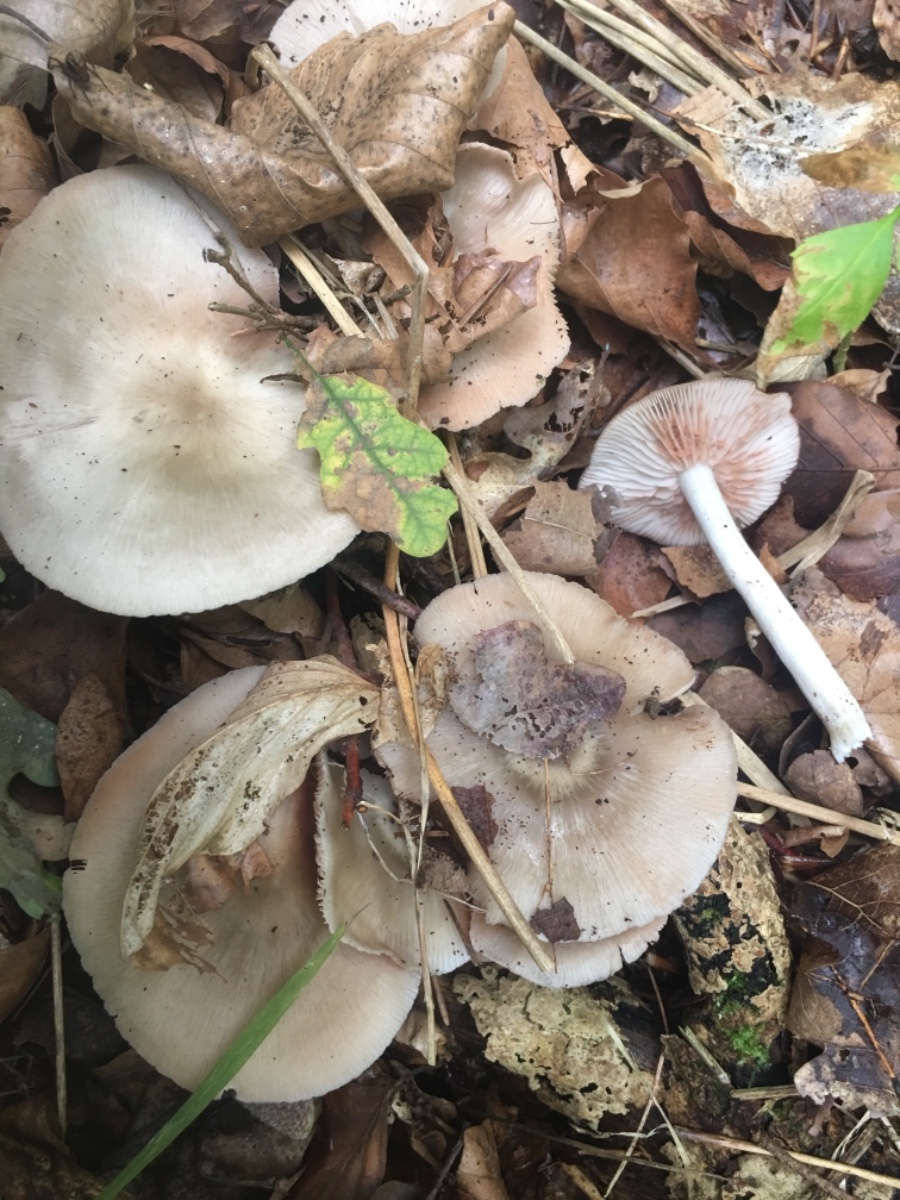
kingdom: Fungi
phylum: Basidiomycota
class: Agaricomycetes
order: Agaricales
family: Entolomataceae
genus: Entoloma
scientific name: Entoloma rhodopolium
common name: skov-rødblad
